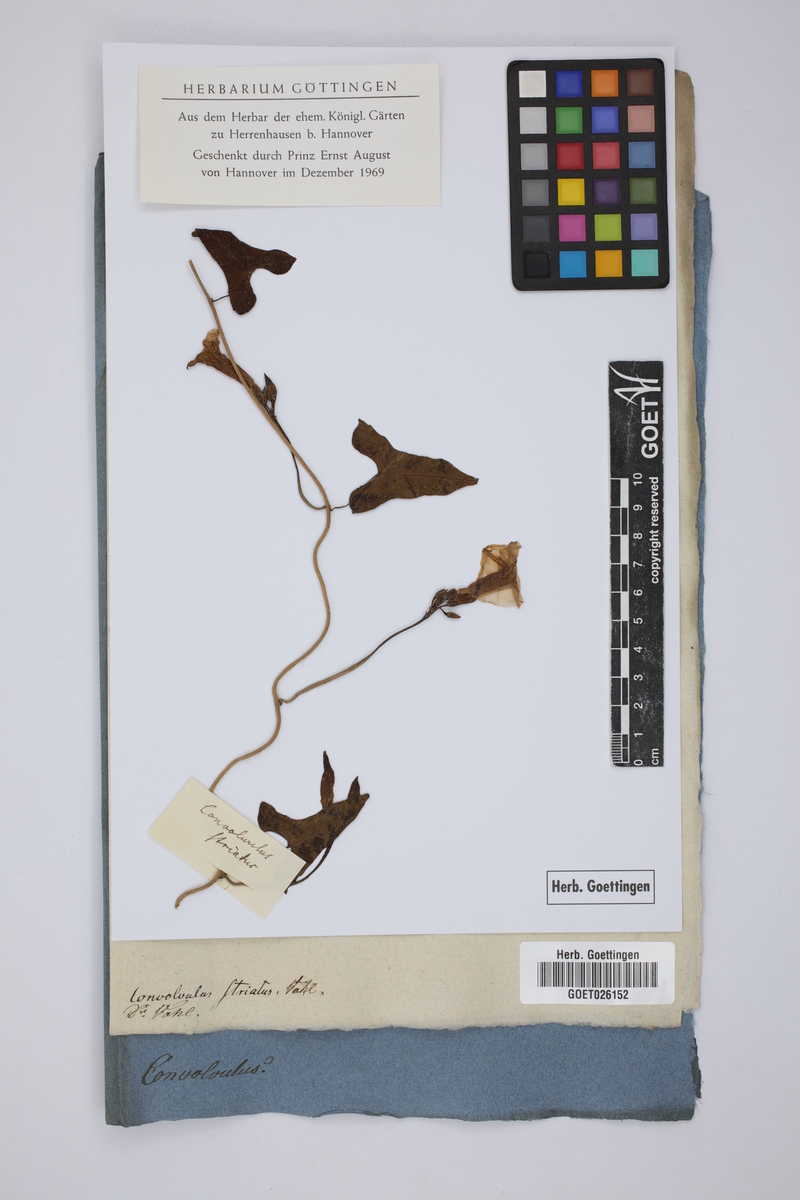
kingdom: Plantae
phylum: Tracheophyta
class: Magnoliopsida
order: Solanales
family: Convolvulaceae
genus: Merremia
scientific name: Merremia gemella
